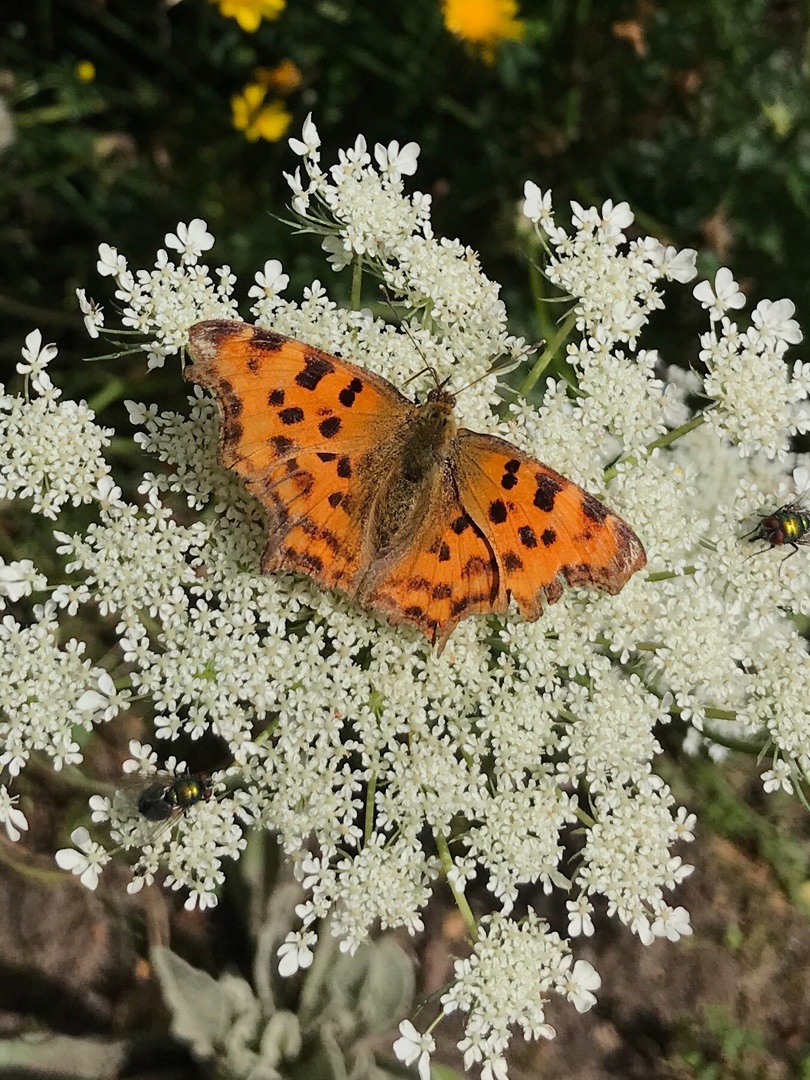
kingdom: Animalia
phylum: Arthropoda
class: Insecta
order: Lepidoptera
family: Nymphalidae
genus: Polygonia
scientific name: Polygonia c-album
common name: Det hvide C
